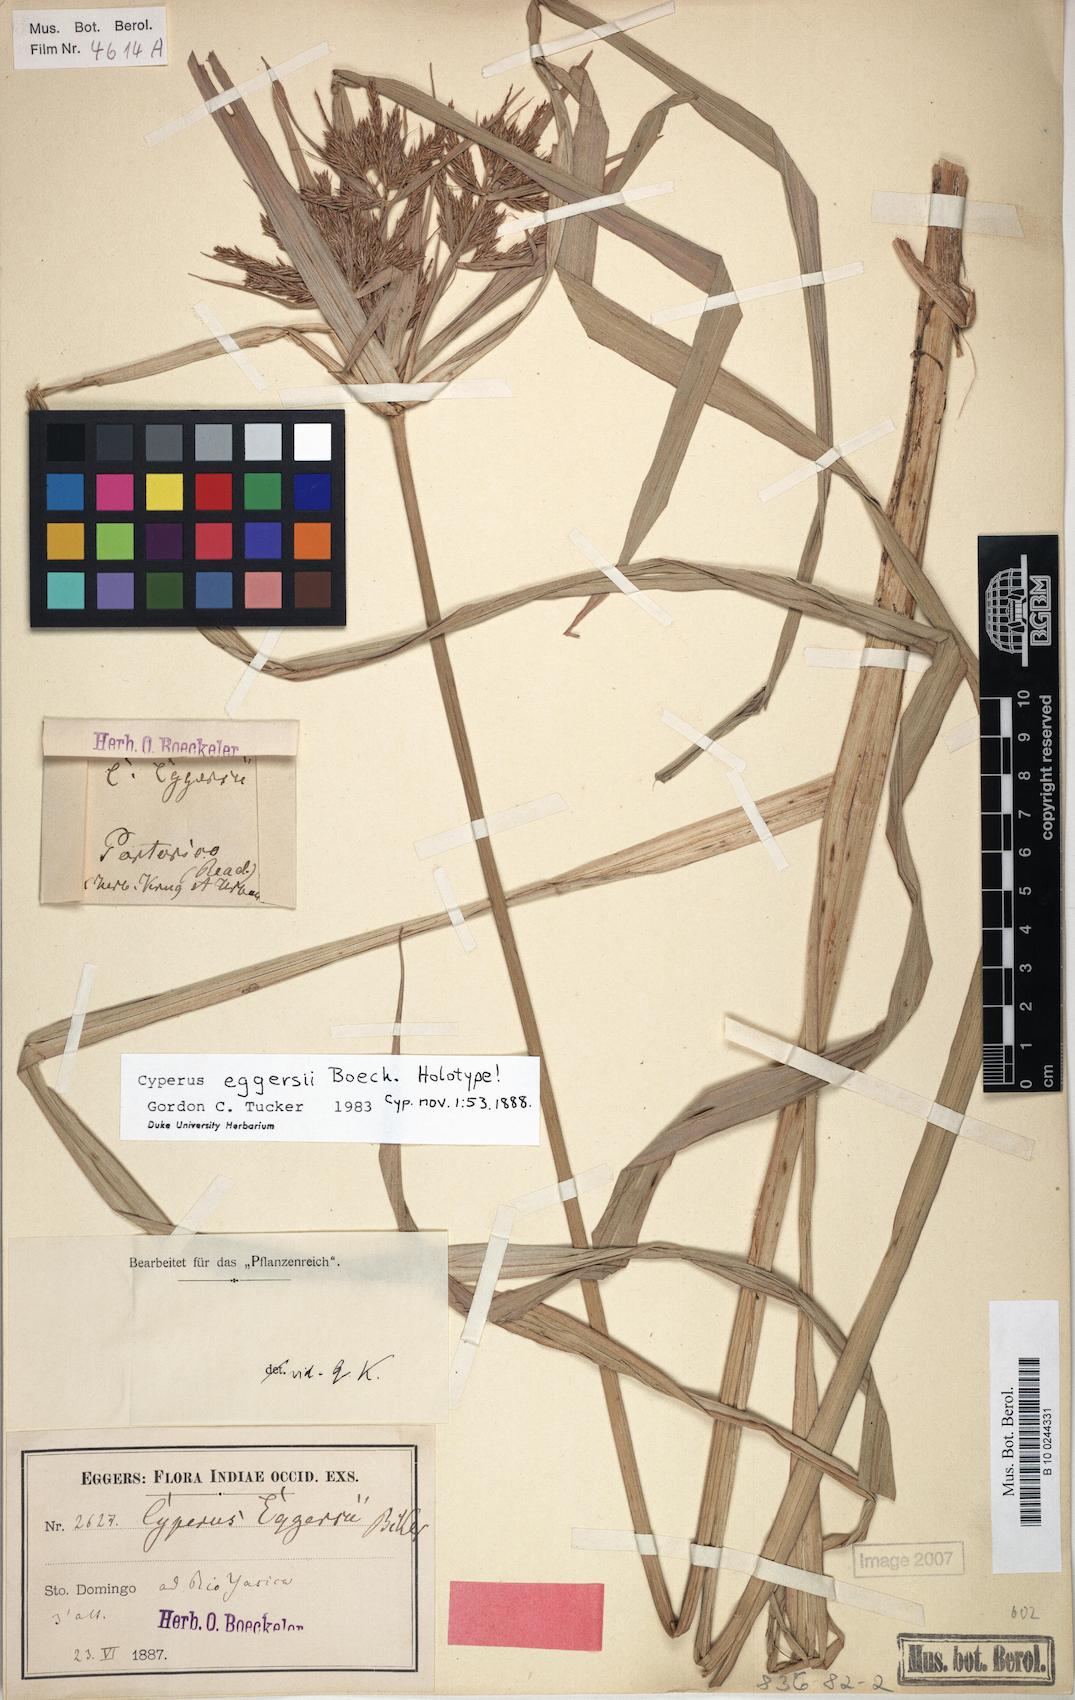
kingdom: Plantae
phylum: Tracheophyta
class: Liliopsida
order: Poales
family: Cyperaceae
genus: Cyperus
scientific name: Cyperus odoratus
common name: Fragrant flatsedge
